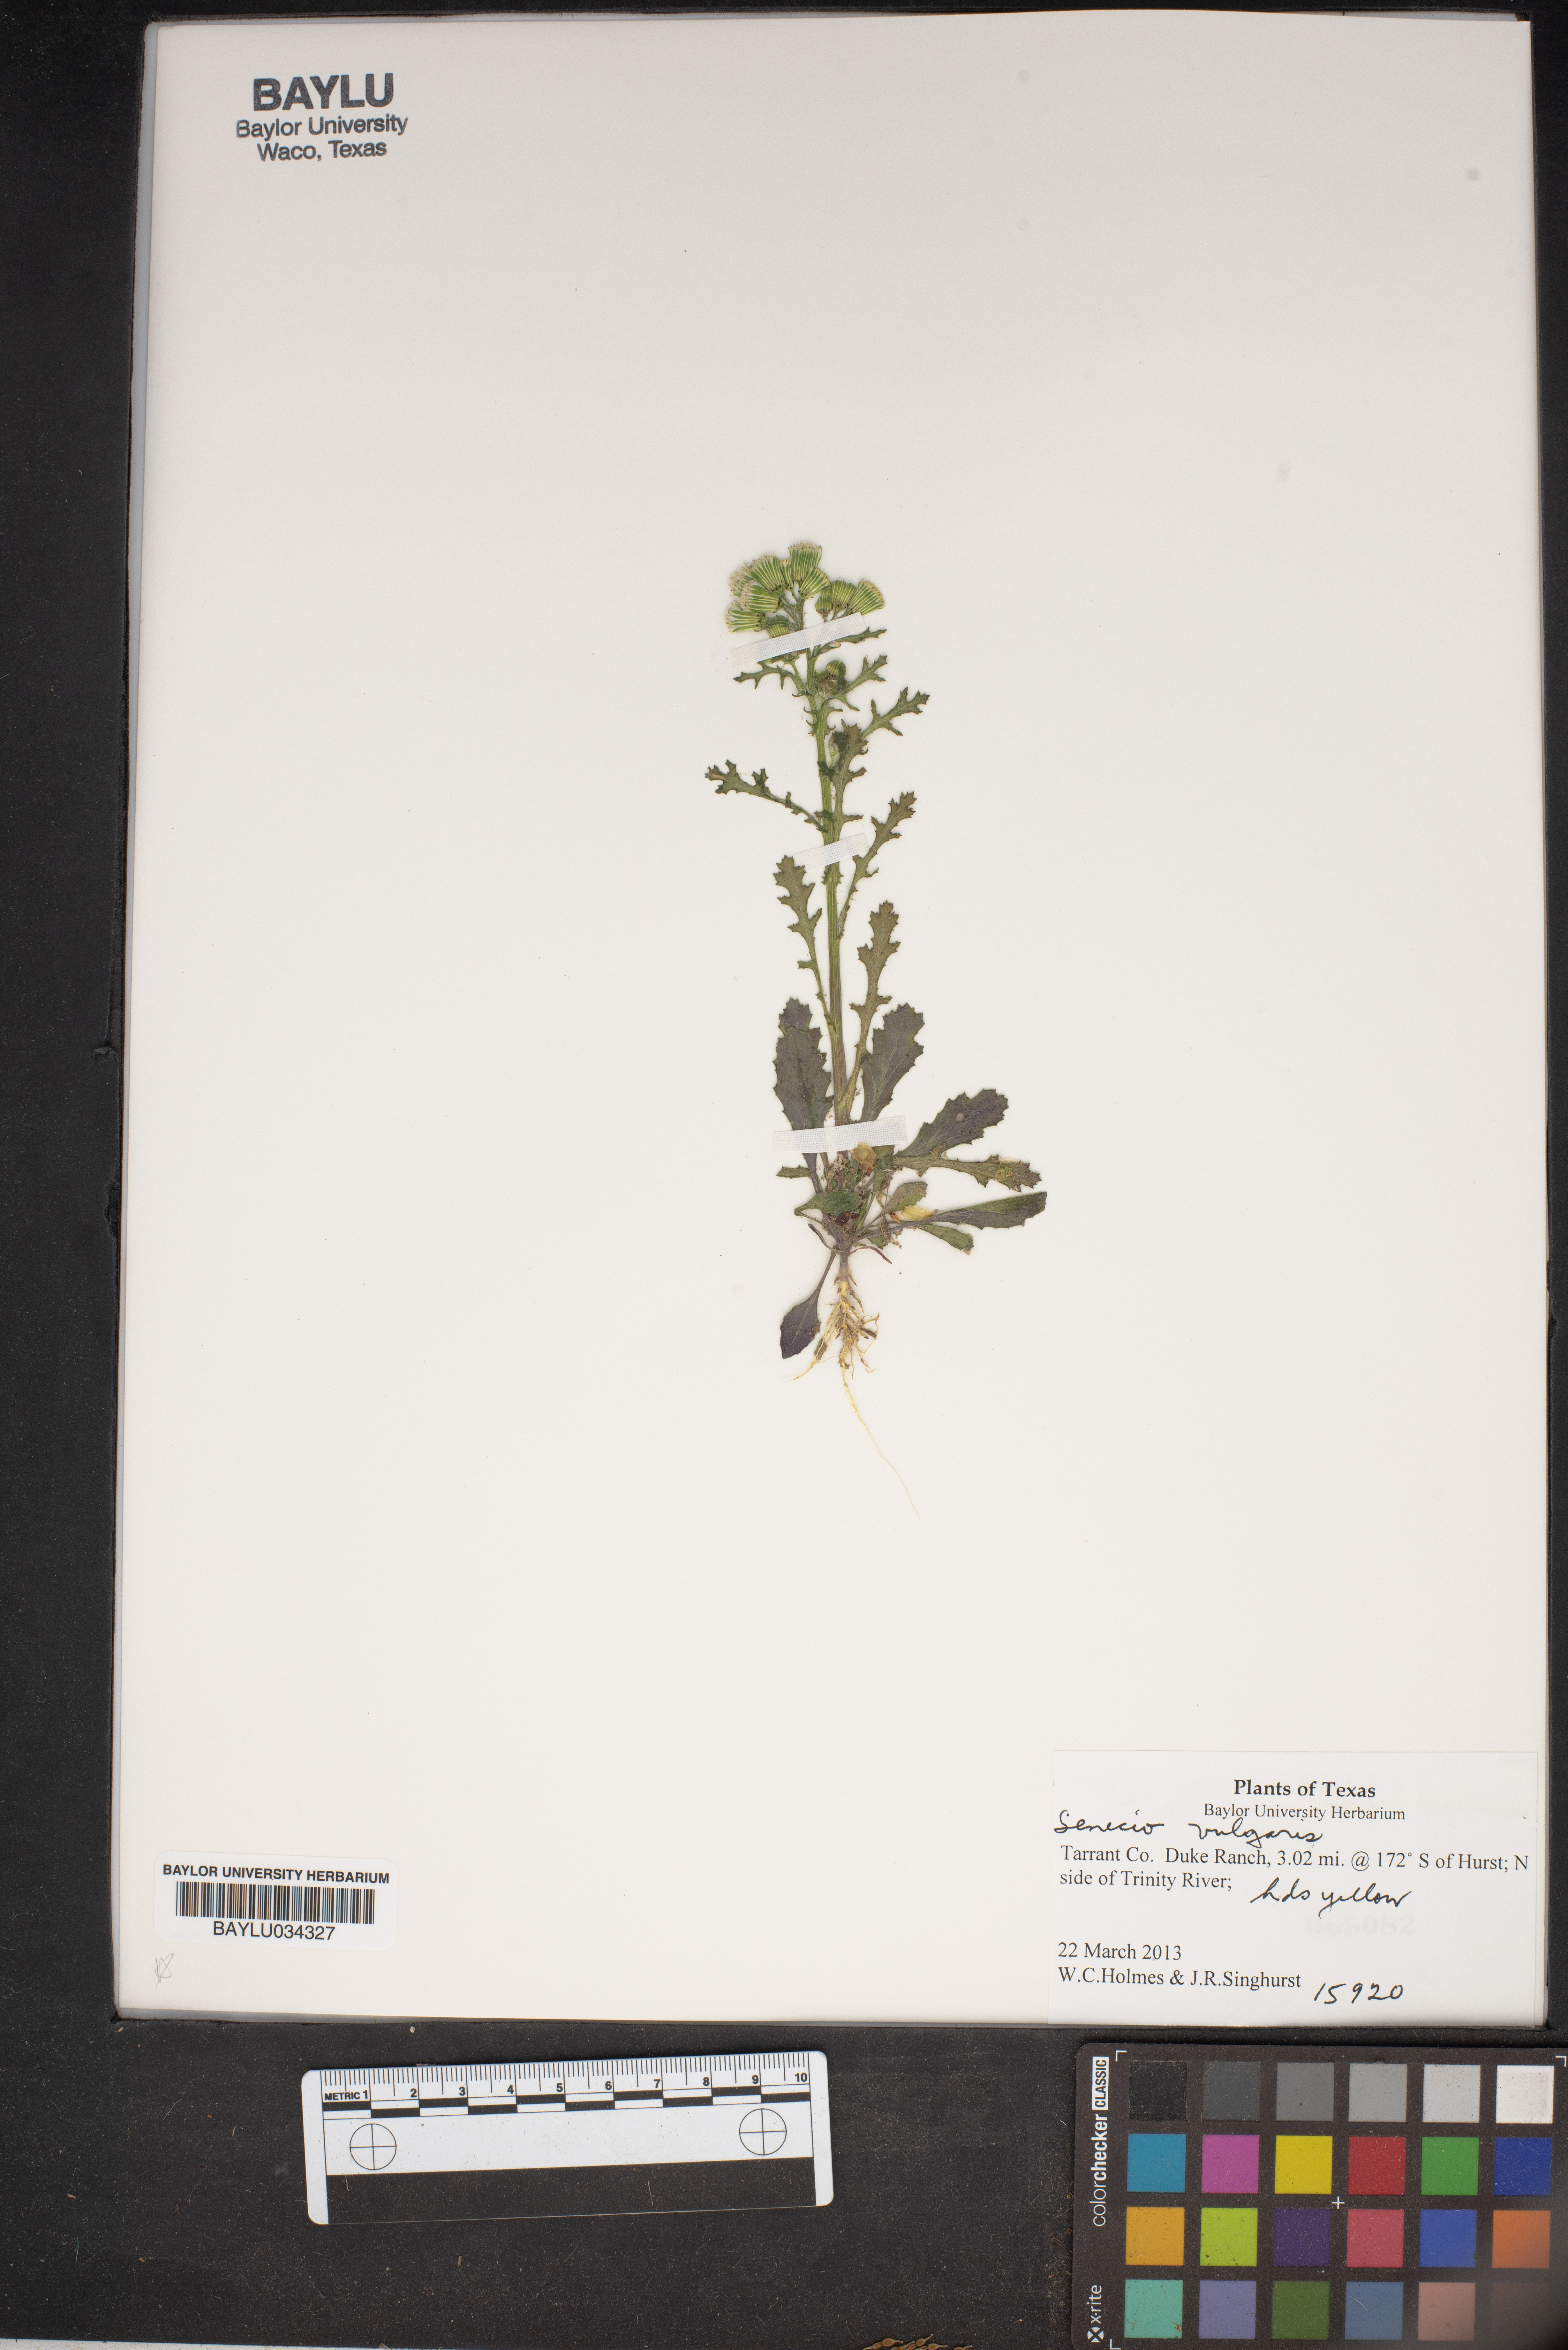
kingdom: Plantae
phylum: Tracheophyta
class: Magnoliopsida
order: Asterales
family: Asteraceae
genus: Senecio
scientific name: Senecio vulgaris
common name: Old-man-in-the-spring
